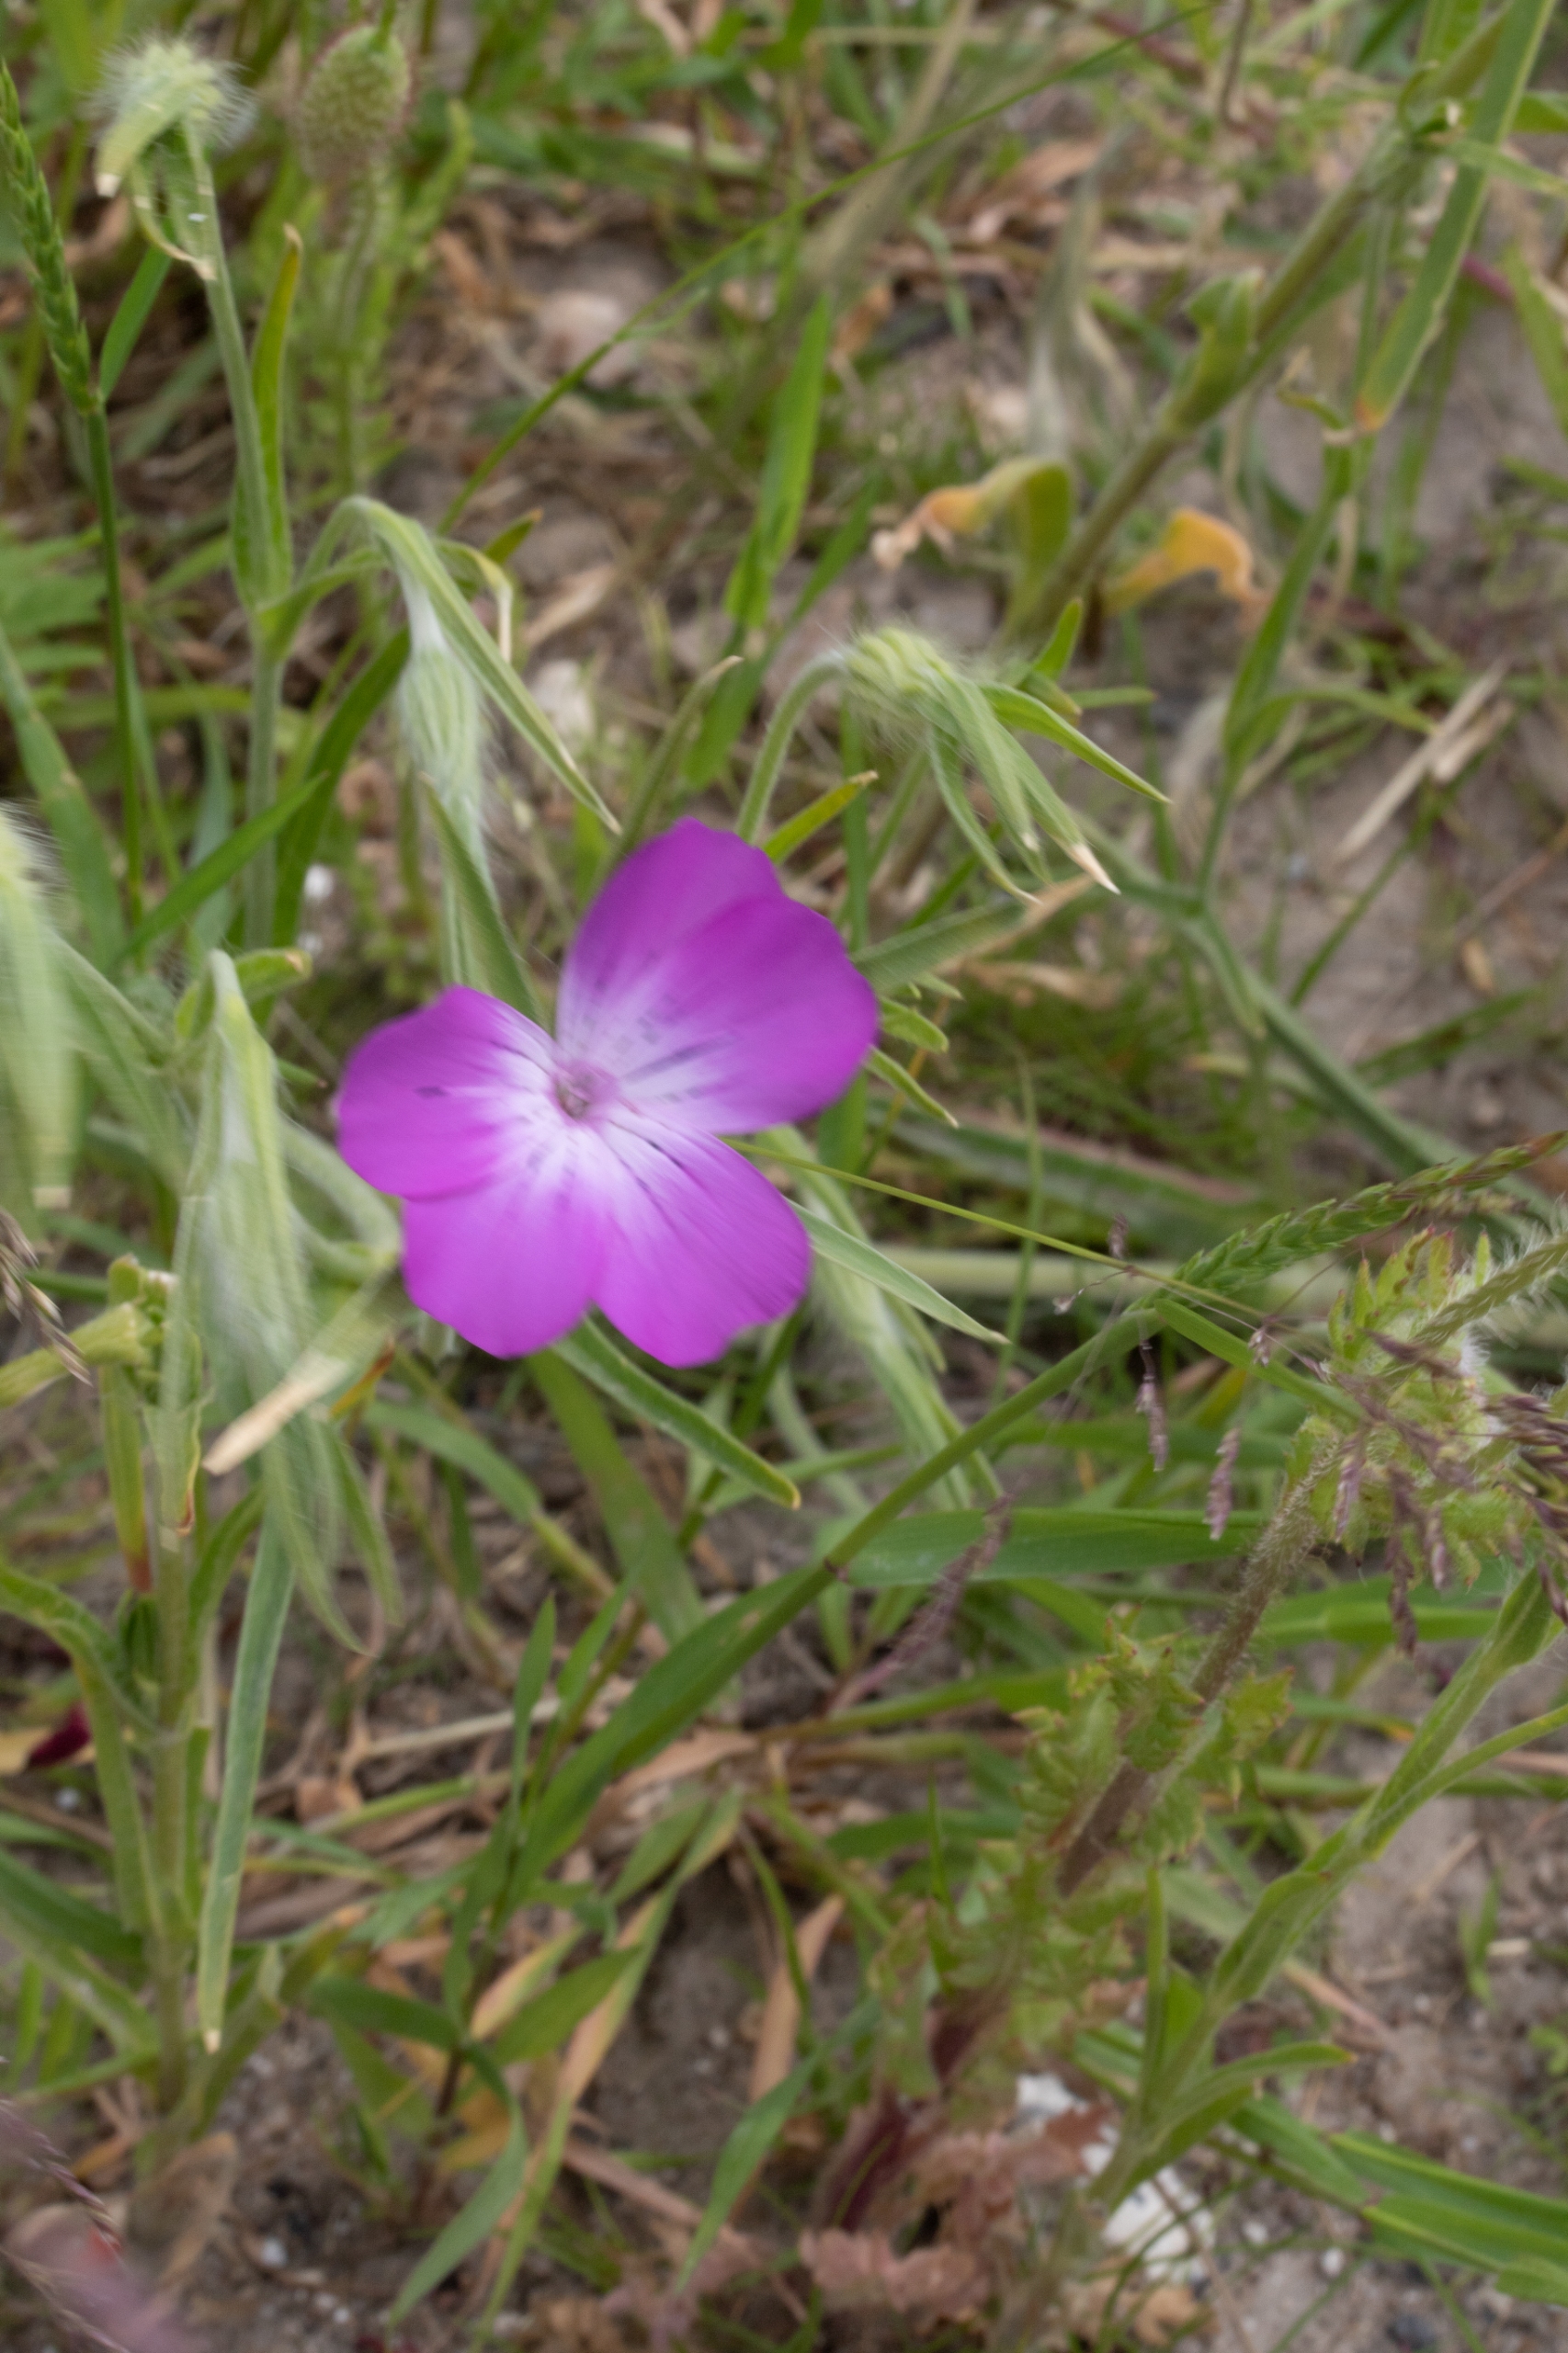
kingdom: Plantae
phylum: Tracheophyta
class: Magnoliopsida
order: Caryophyllales
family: Caryophyllaceae
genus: Agrostemma
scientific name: Agrostemma githago
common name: Klinte
